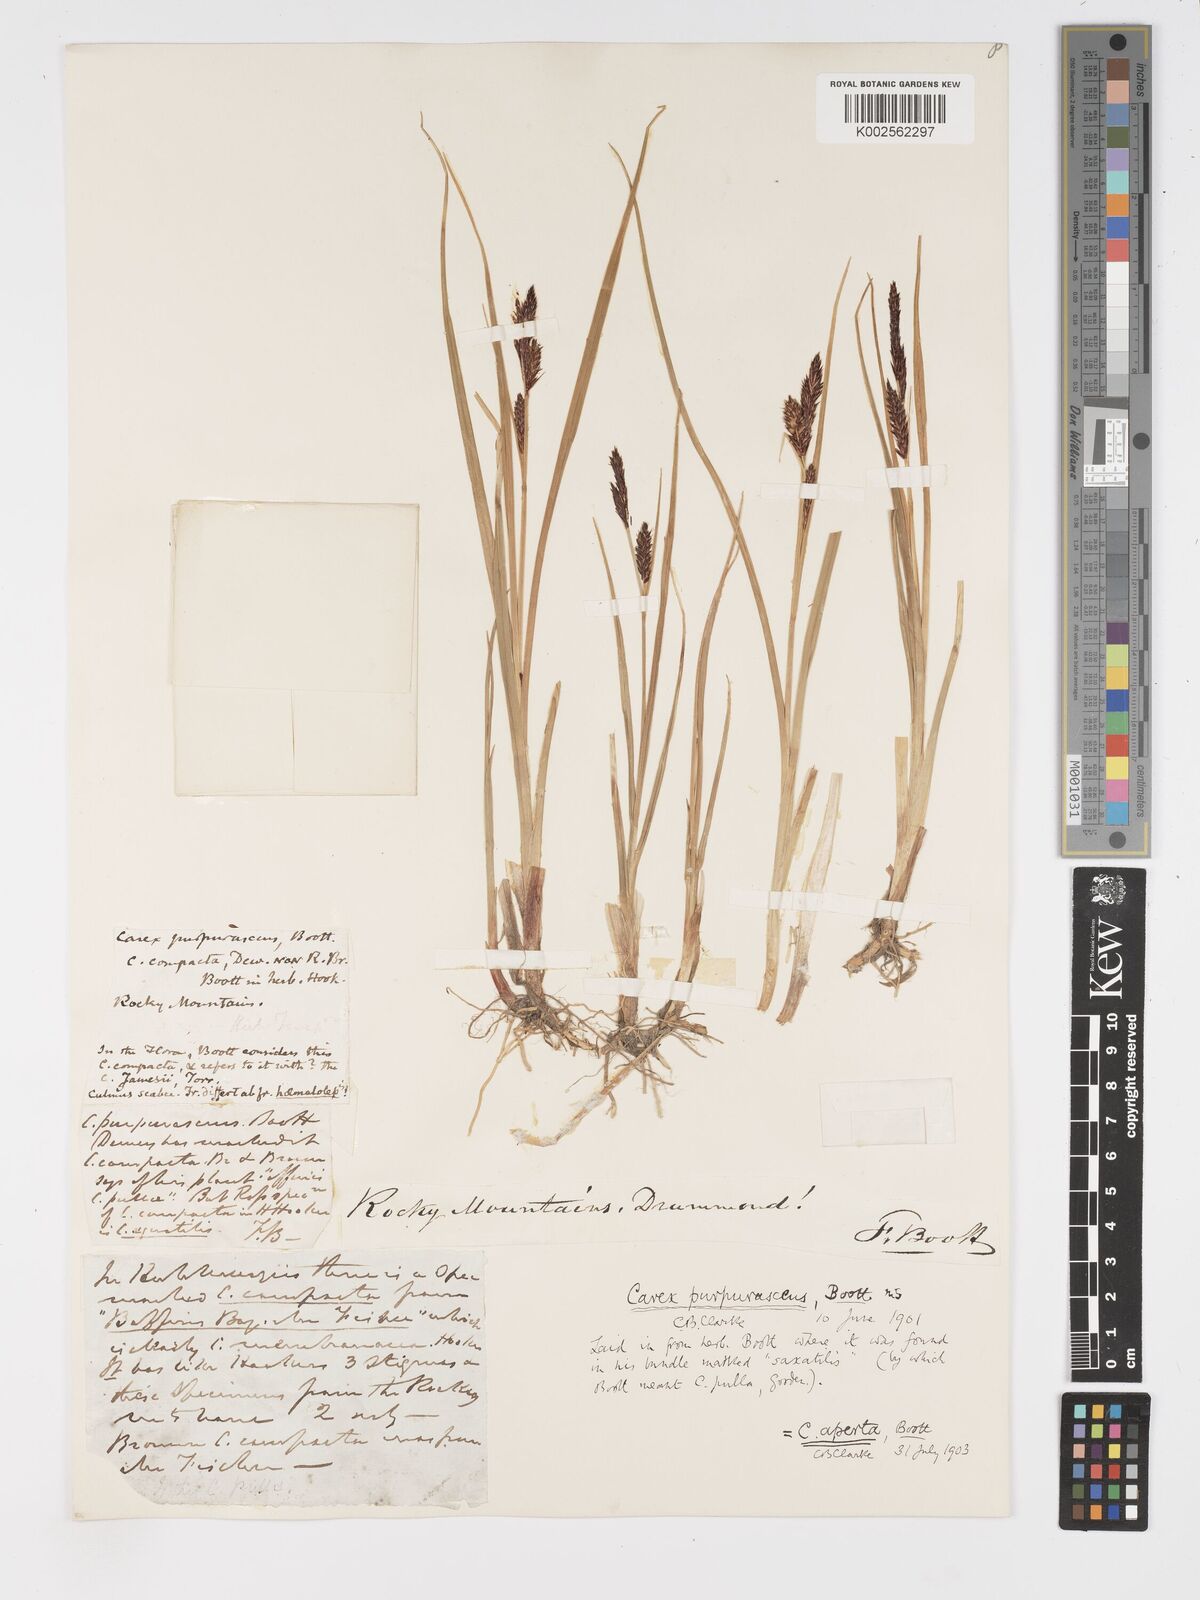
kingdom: Plantae
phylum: Tracheophyta
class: Liliopsida
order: Poales
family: Cyperaceae
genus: Carex
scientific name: Carex aperta
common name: Columbia sedge
